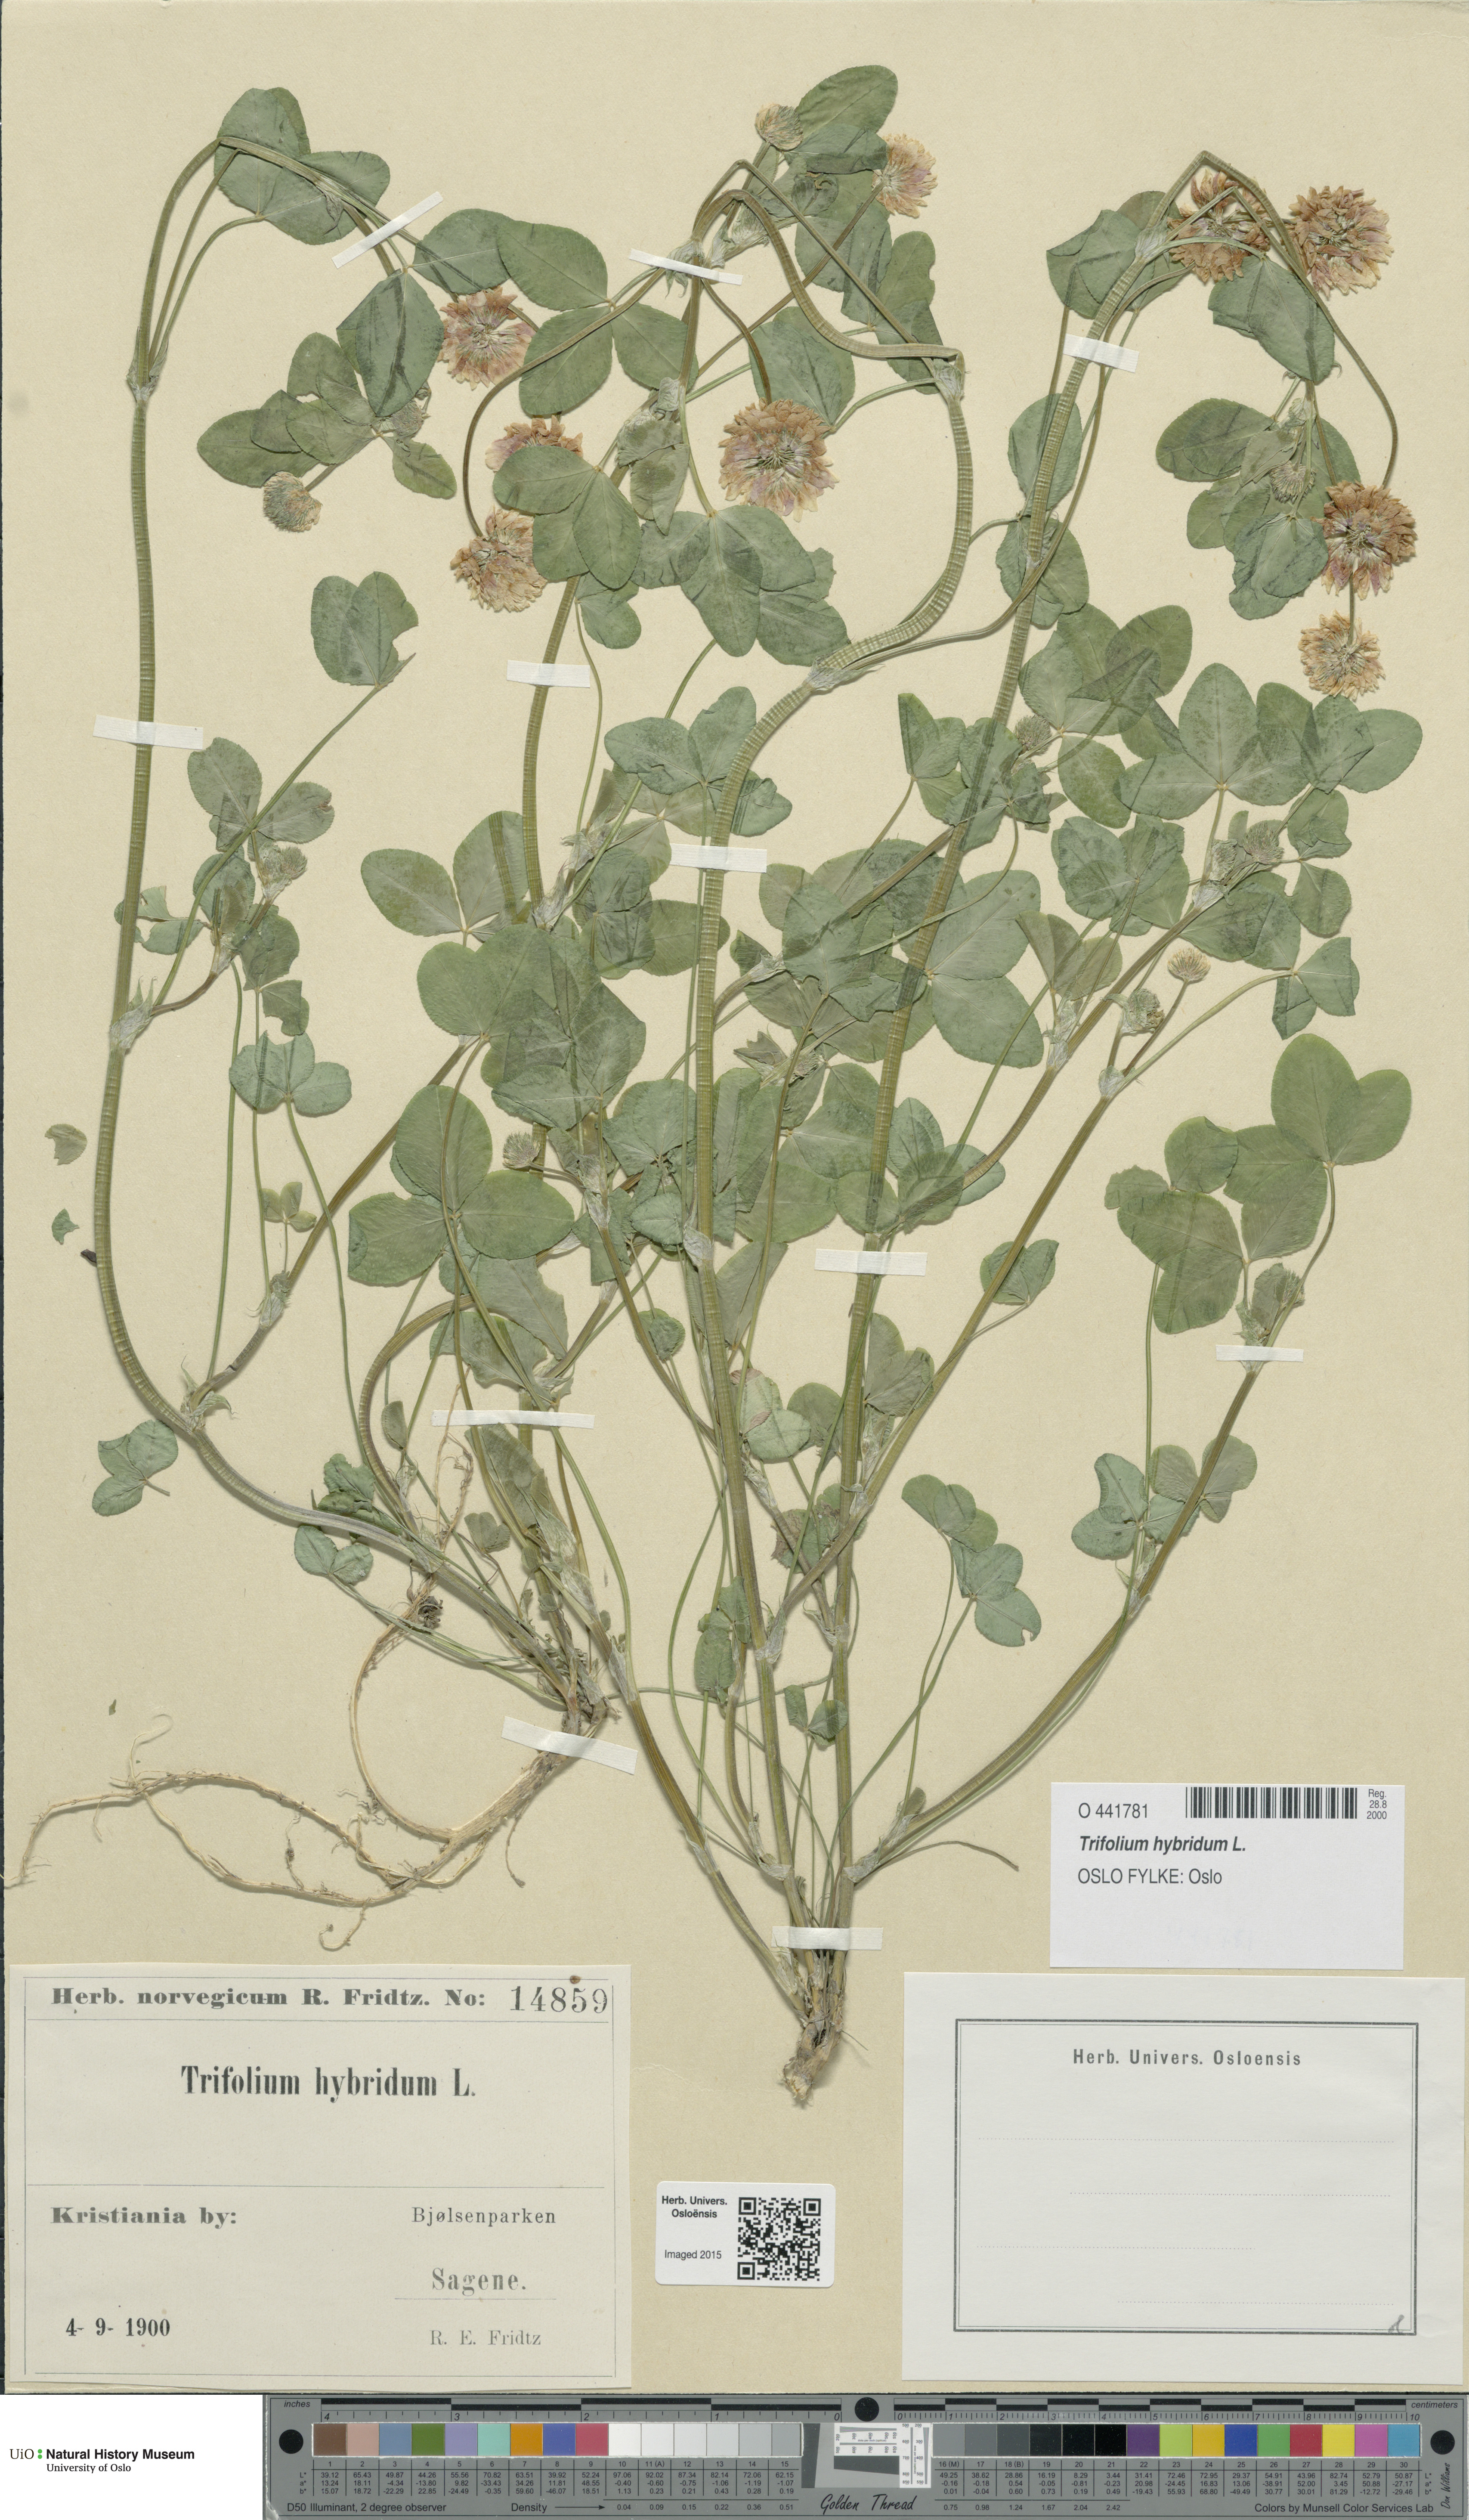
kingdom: Plantae
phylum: Tracheophyta
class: Magnoliopsida
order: Fabales
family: Fabaceae
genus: Trifolium
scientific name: Trifolium hybridum
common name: Alsike clover
